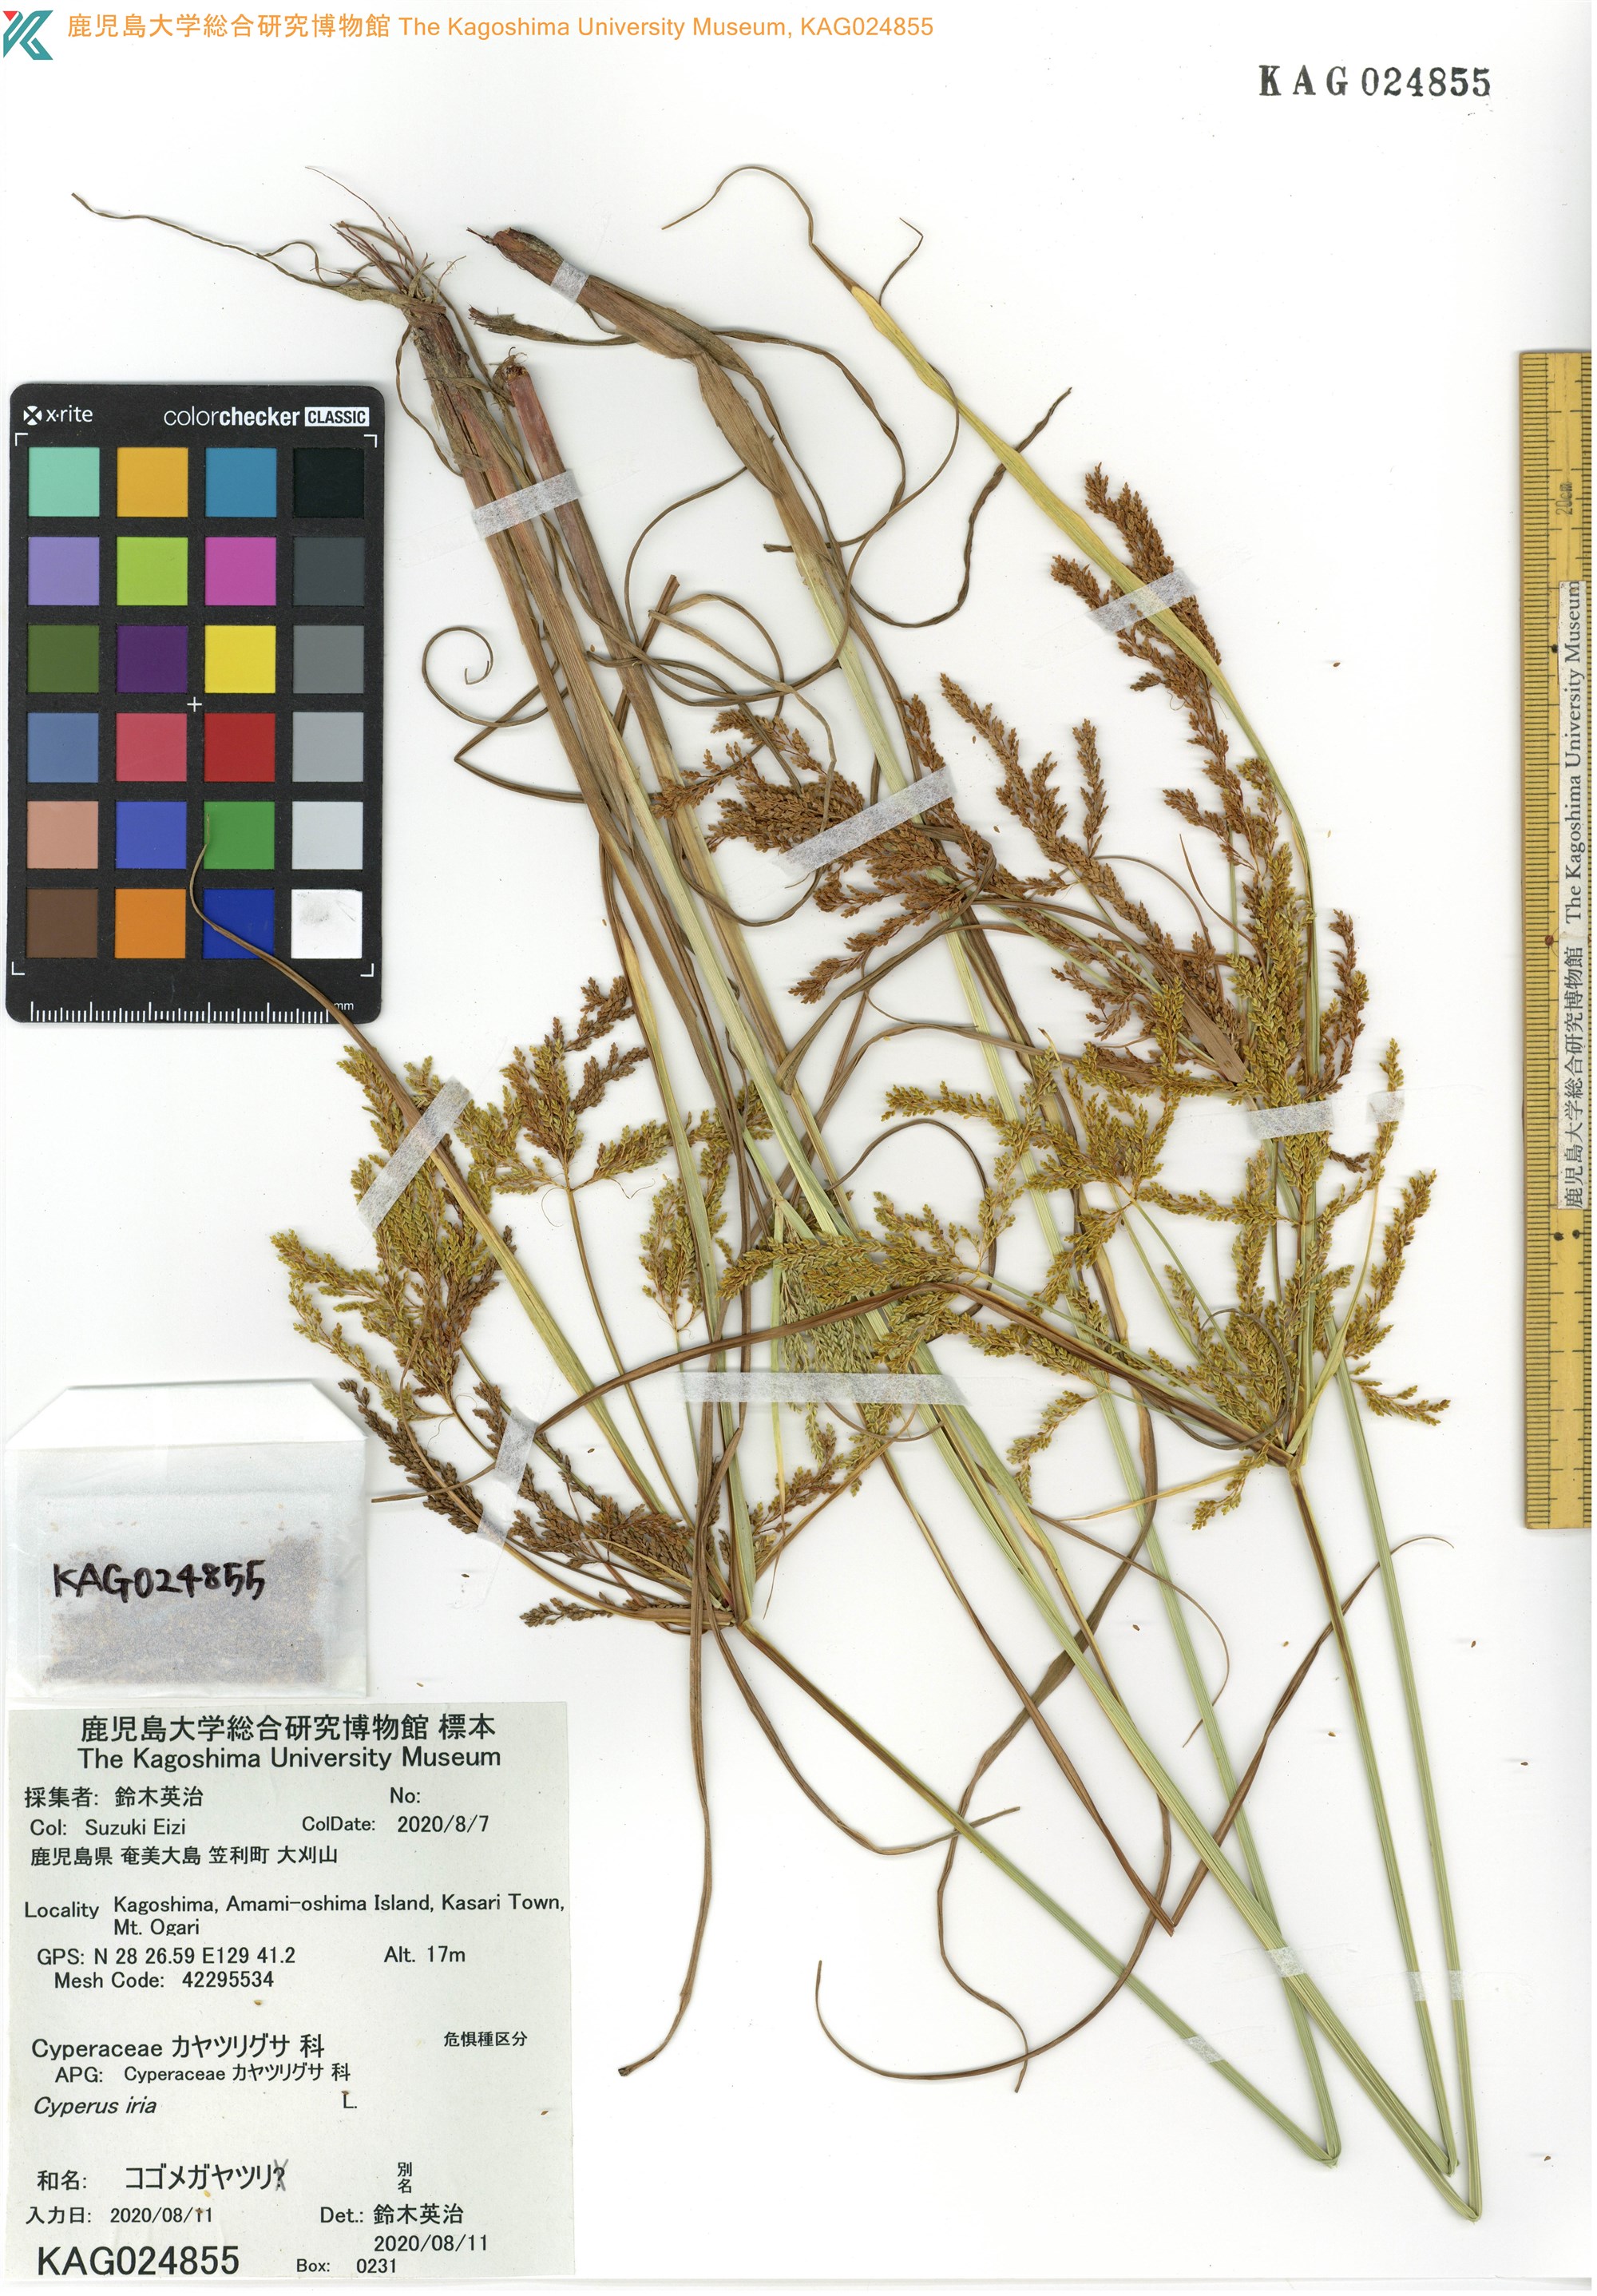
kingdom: Plantae
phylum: Tracheophyta
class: Liliopsida
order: Poales
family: Cyperaceae
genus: Cyperus
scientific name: Cyperus iria
